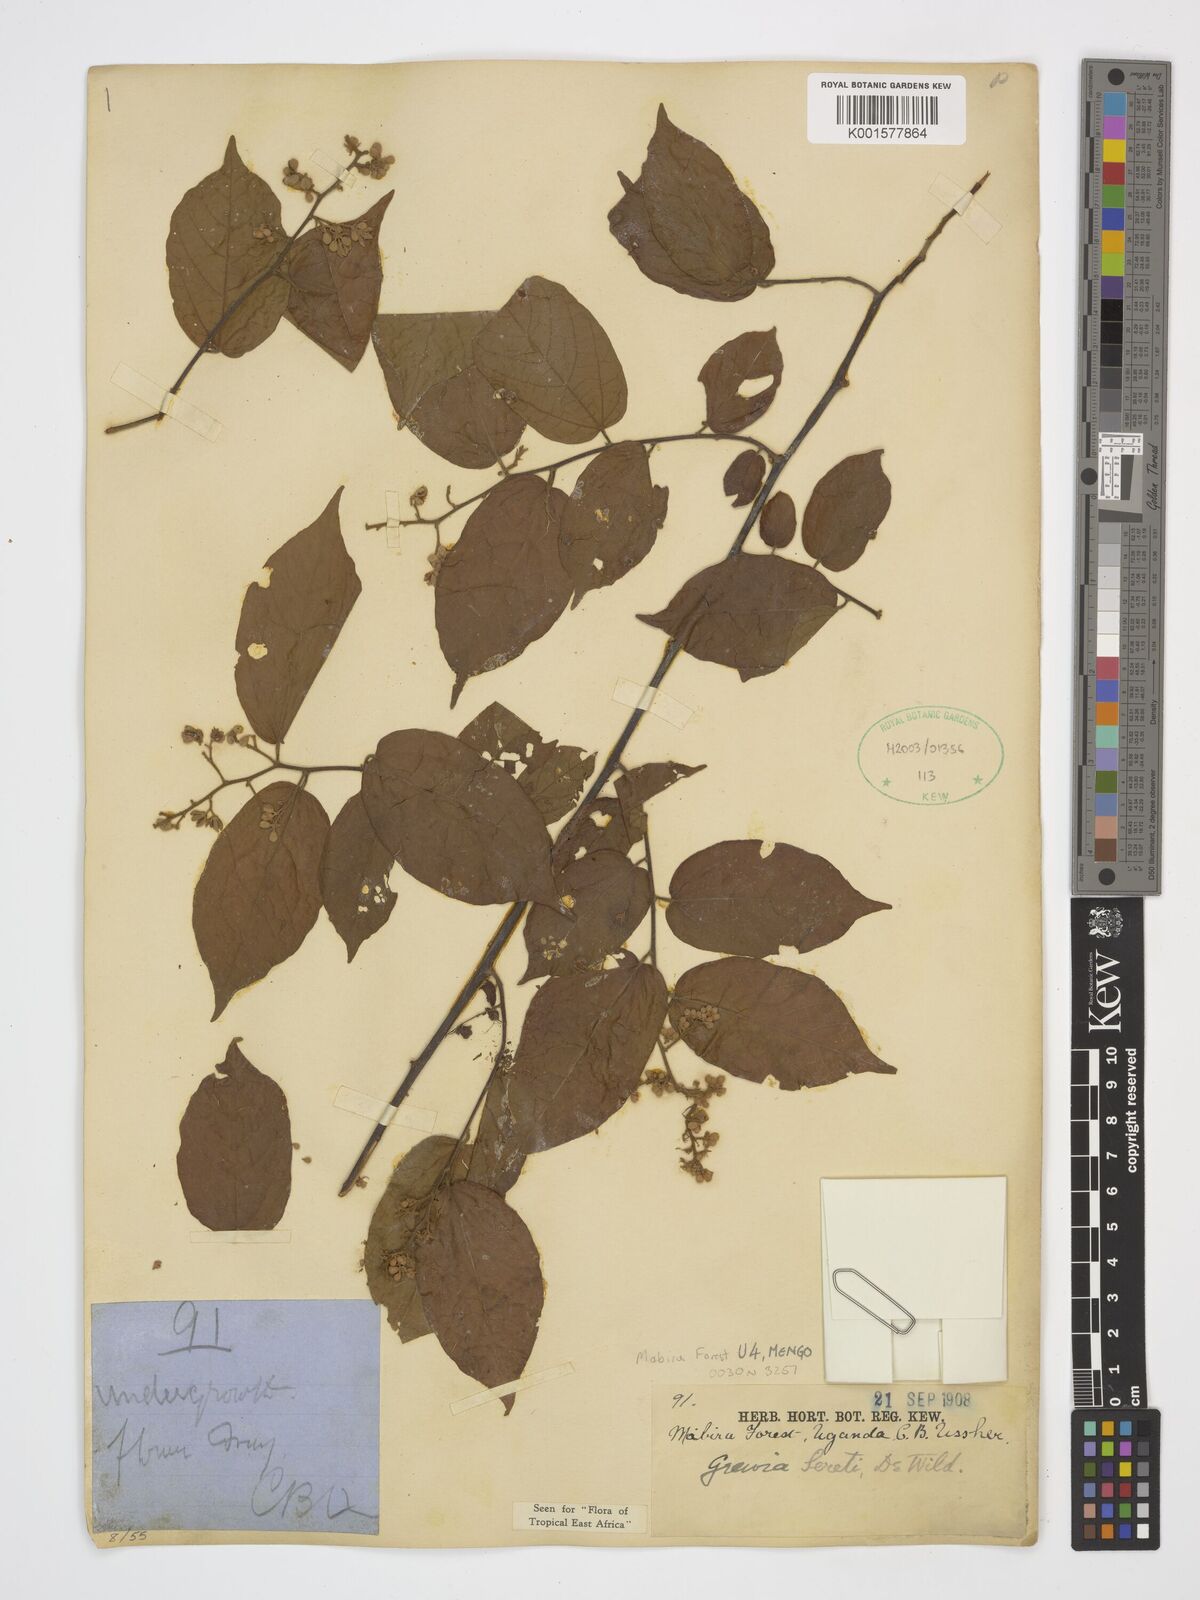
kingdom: Plantae
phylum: Tracheophyta
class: Magnoliopsida
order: Malvales
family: Malvaceae
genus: Microcos
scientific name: Microcos seretii
